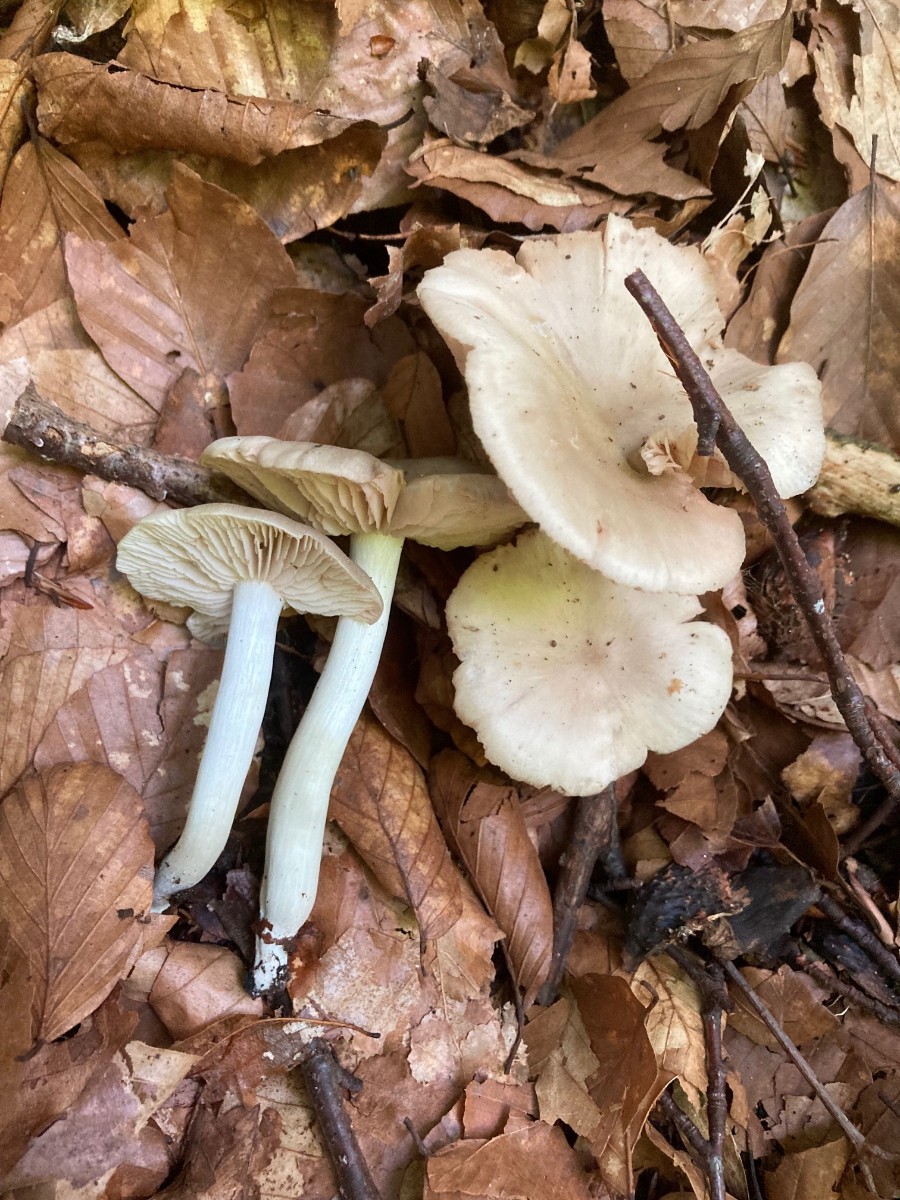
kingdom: Fungi
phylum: Basidiomycota
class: Agaricomycetes
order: Agaricales
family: Entolomataceae
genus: Entoloma
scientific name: Entoloma rhodopolium
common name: skov-rødblad
